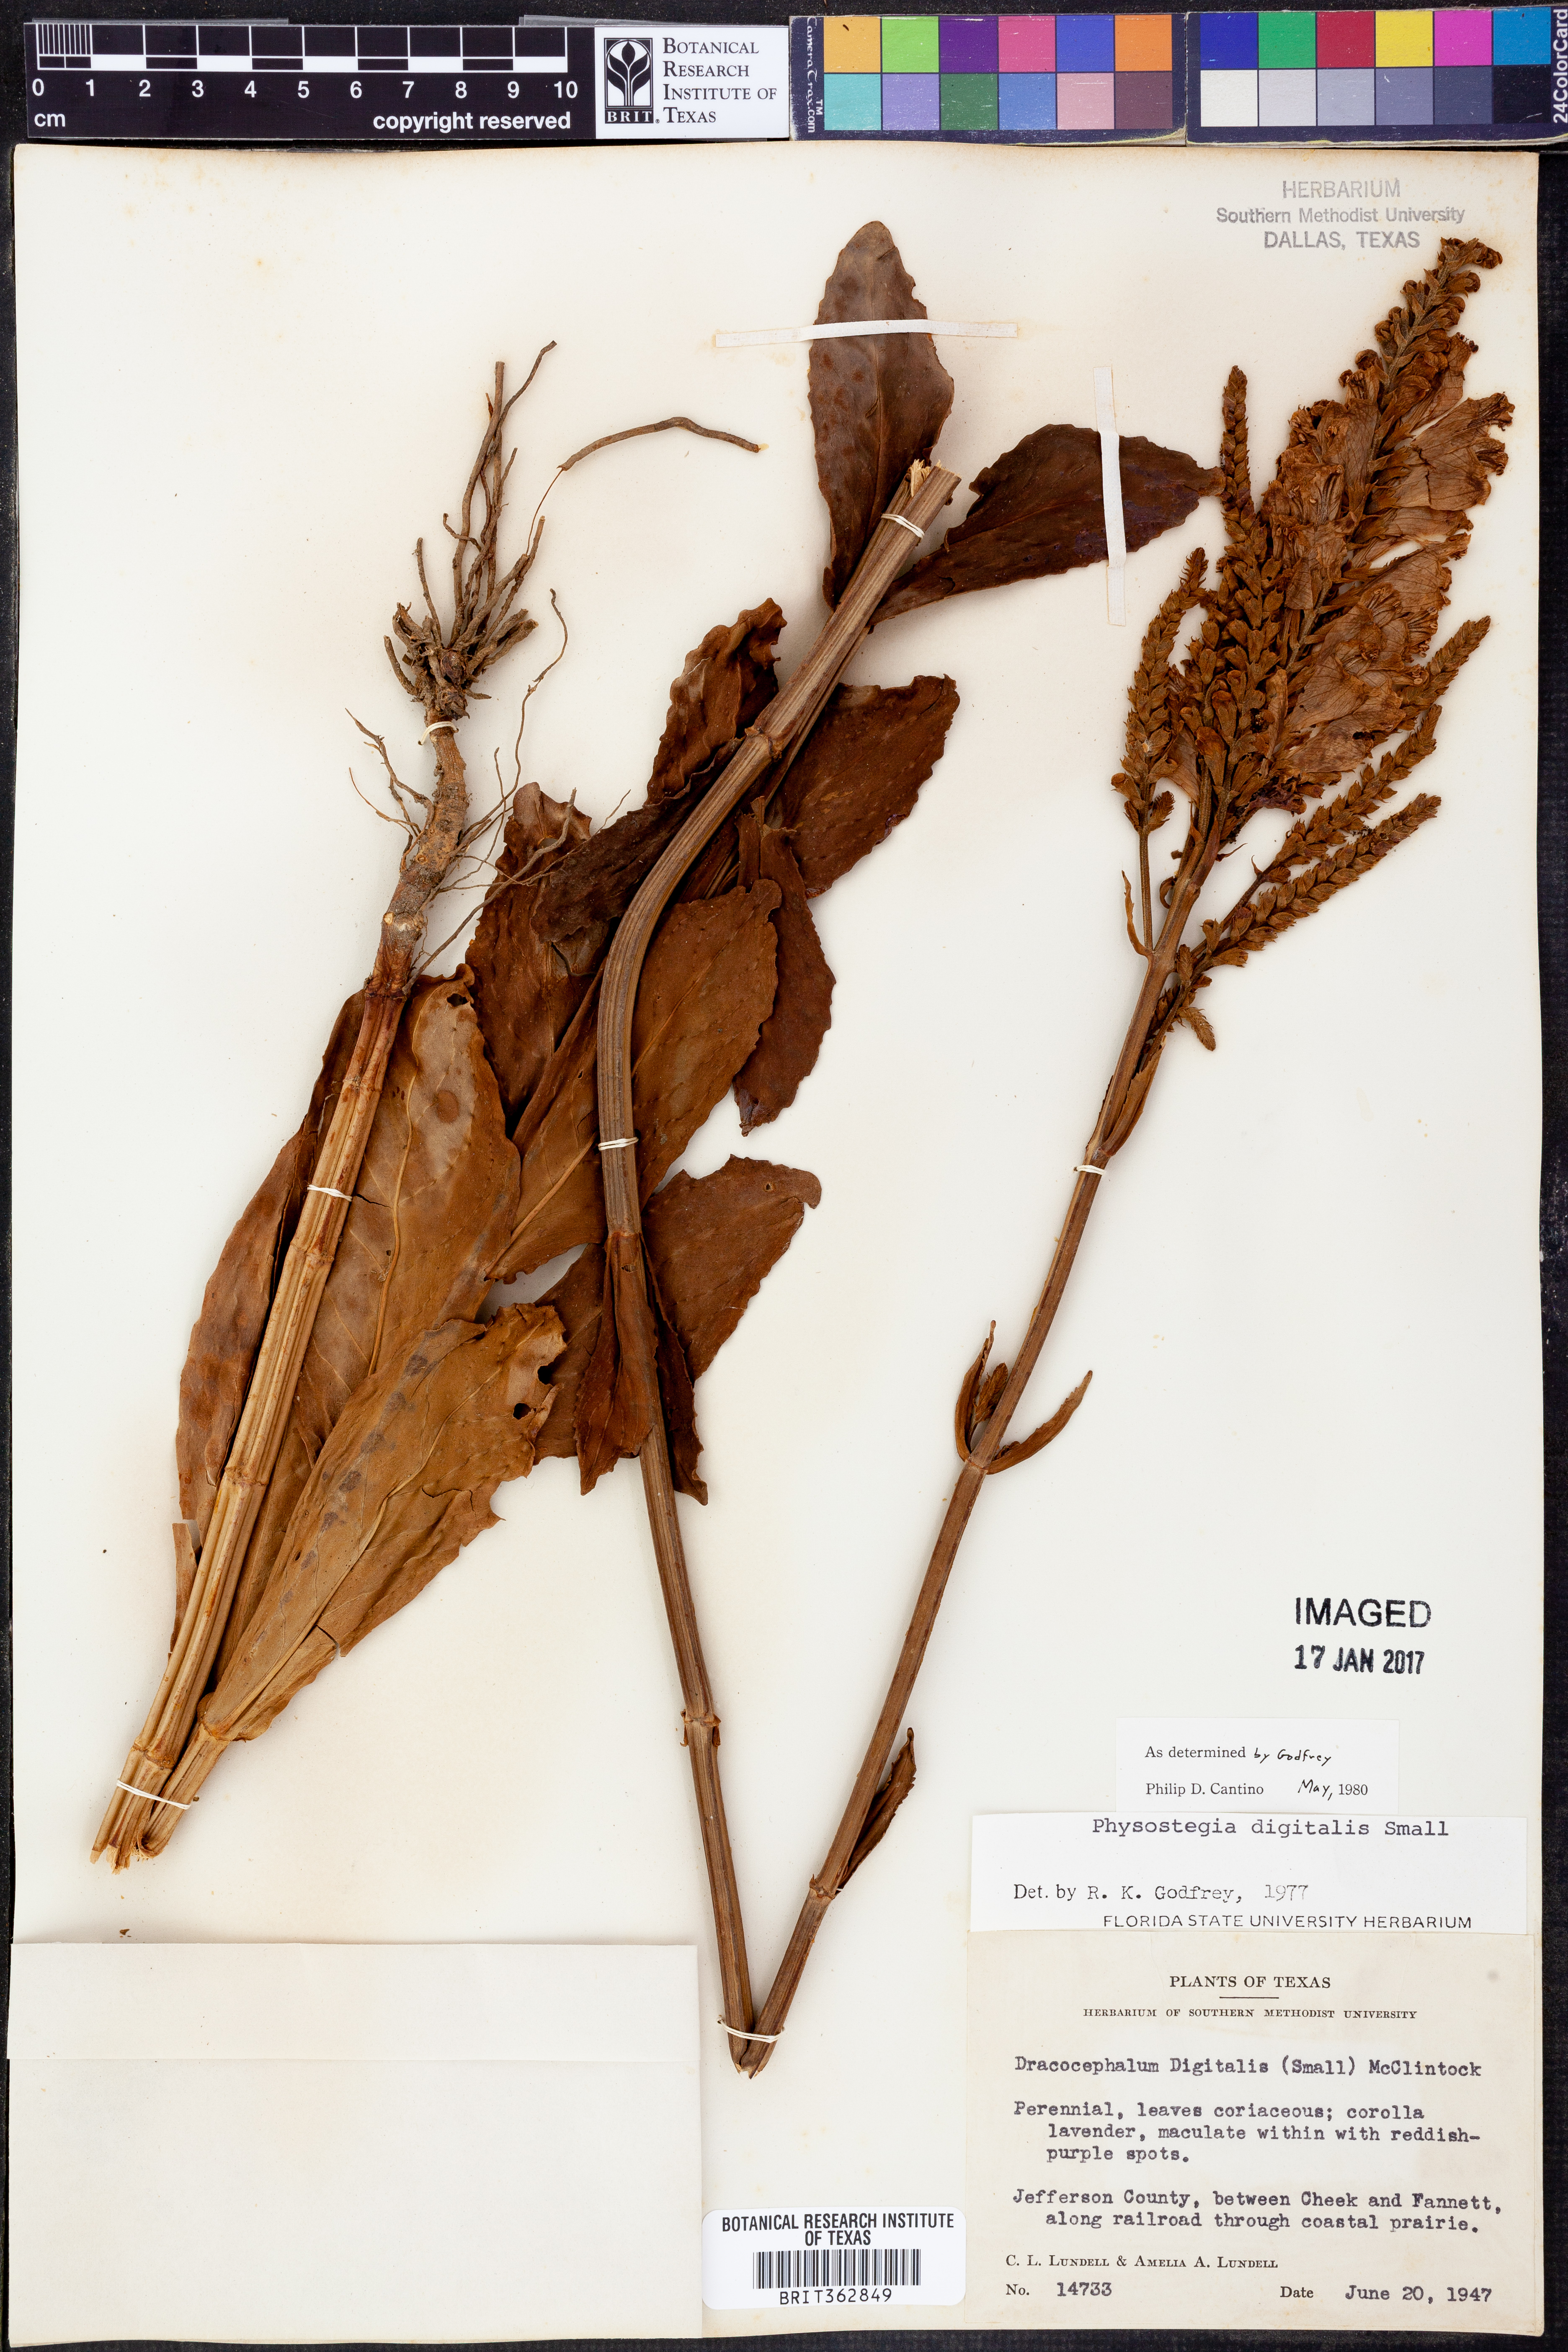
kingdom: Plantae
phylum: Tracheophyta
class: Magnoliopsida
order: Lamiales
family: Lamiaceae
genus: Physostegia
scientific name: Physostegia digitalis
